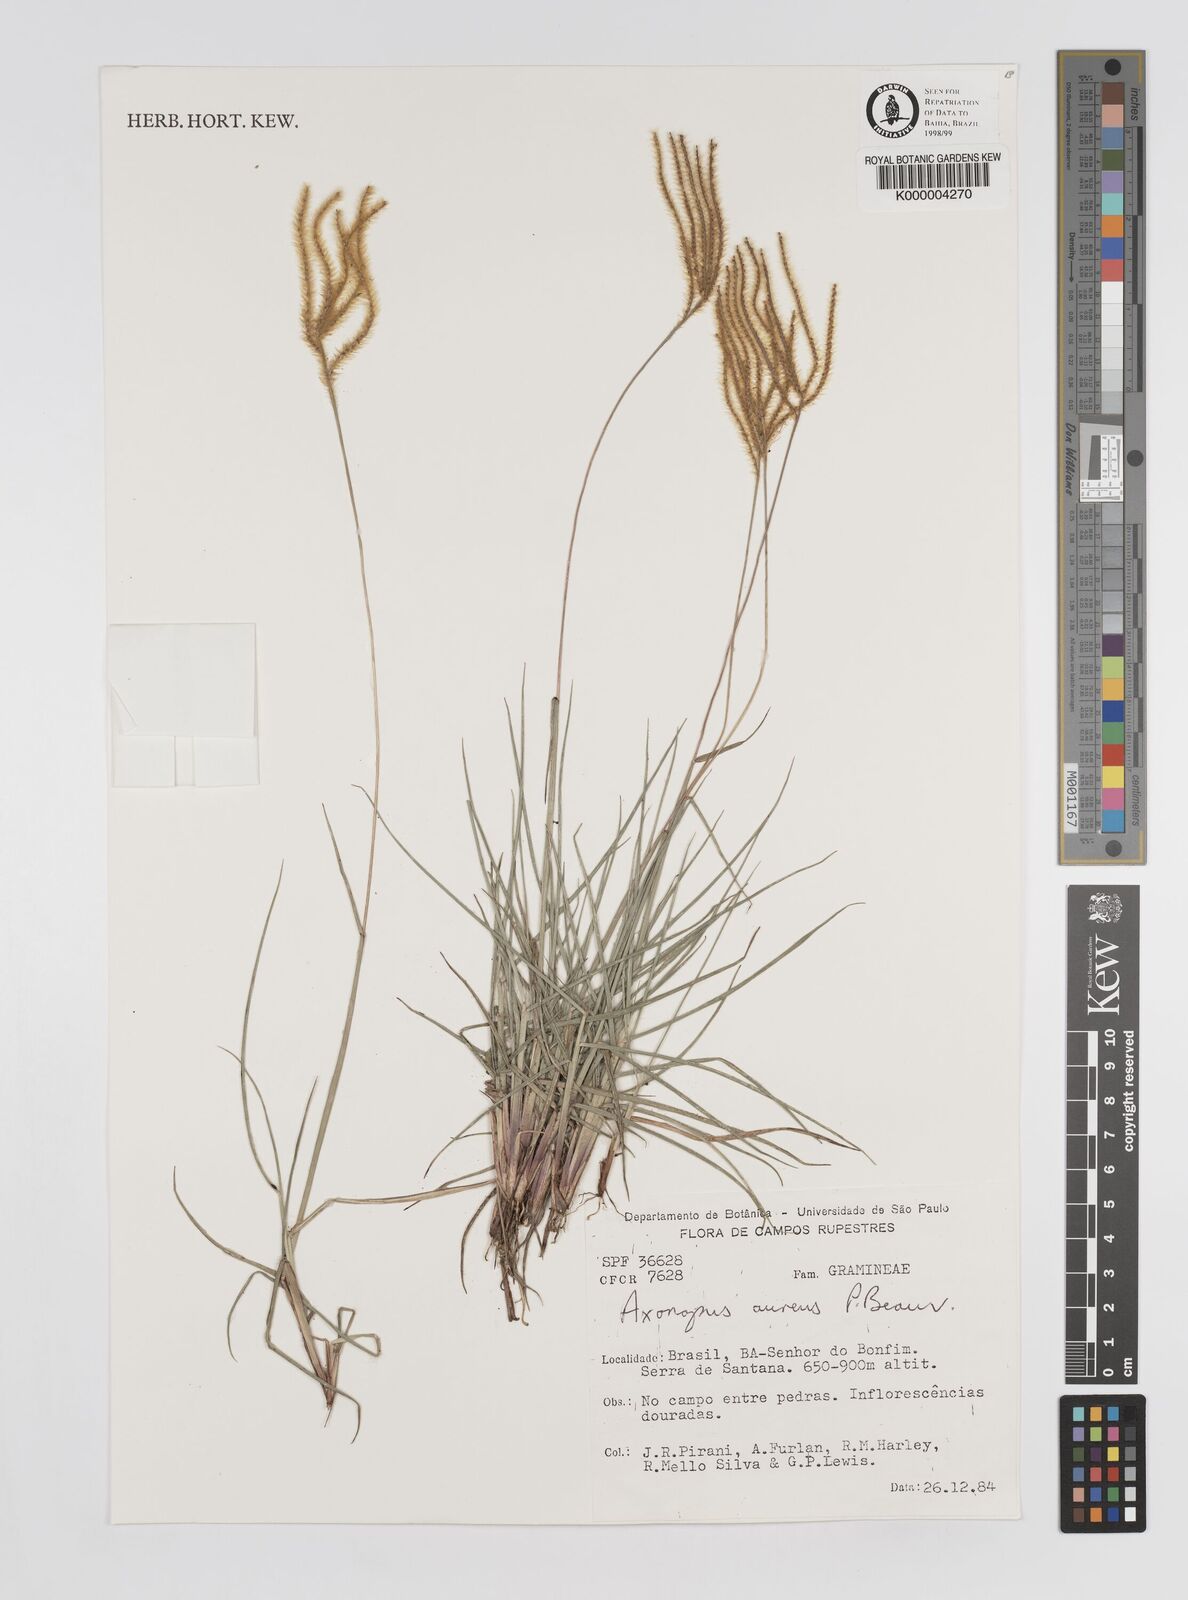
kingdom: Plantae
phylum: Tracheophyta
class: Liliopsida
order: Poales
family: Poaceae
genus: Axonopus
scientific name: Axonopus aureus
